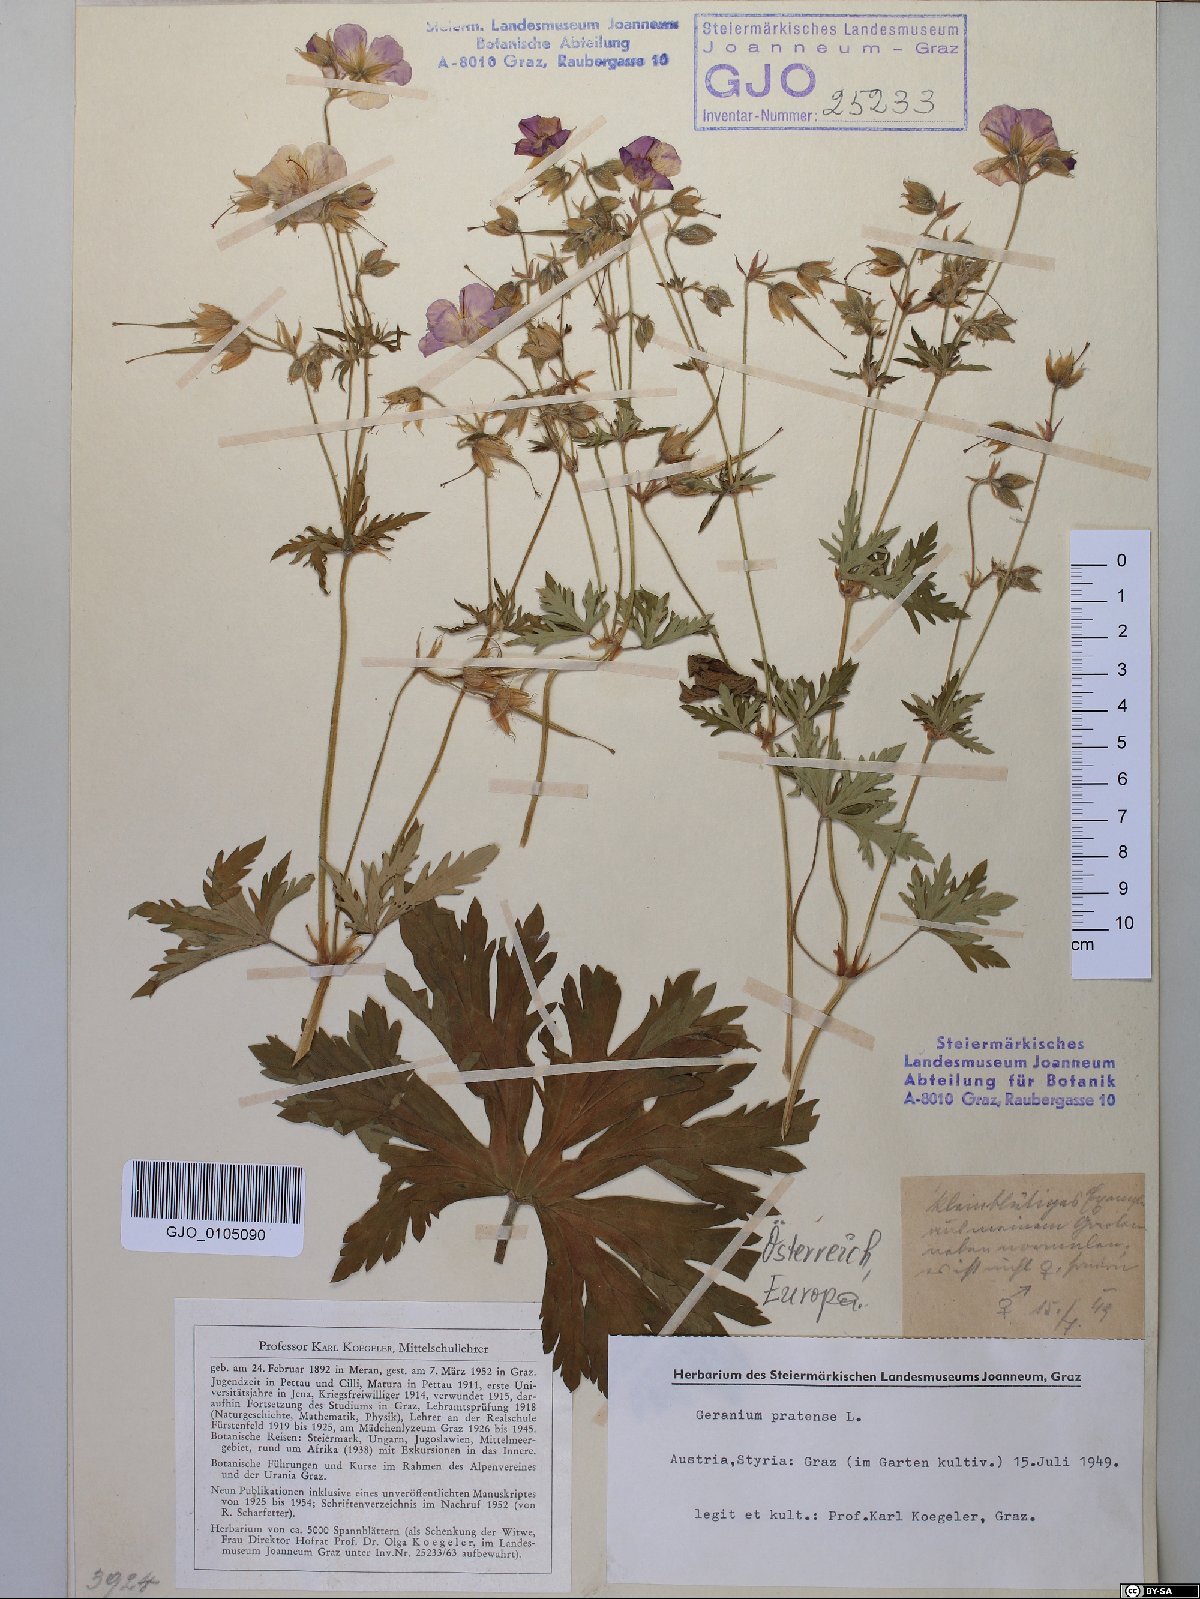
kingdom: Plantae
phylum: Tracheophyta
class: Magnoliopsida
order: Geraniales
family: Geraniaceae
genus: Geranium
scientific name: Geranium pratense
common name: Meadow crane's-bill
